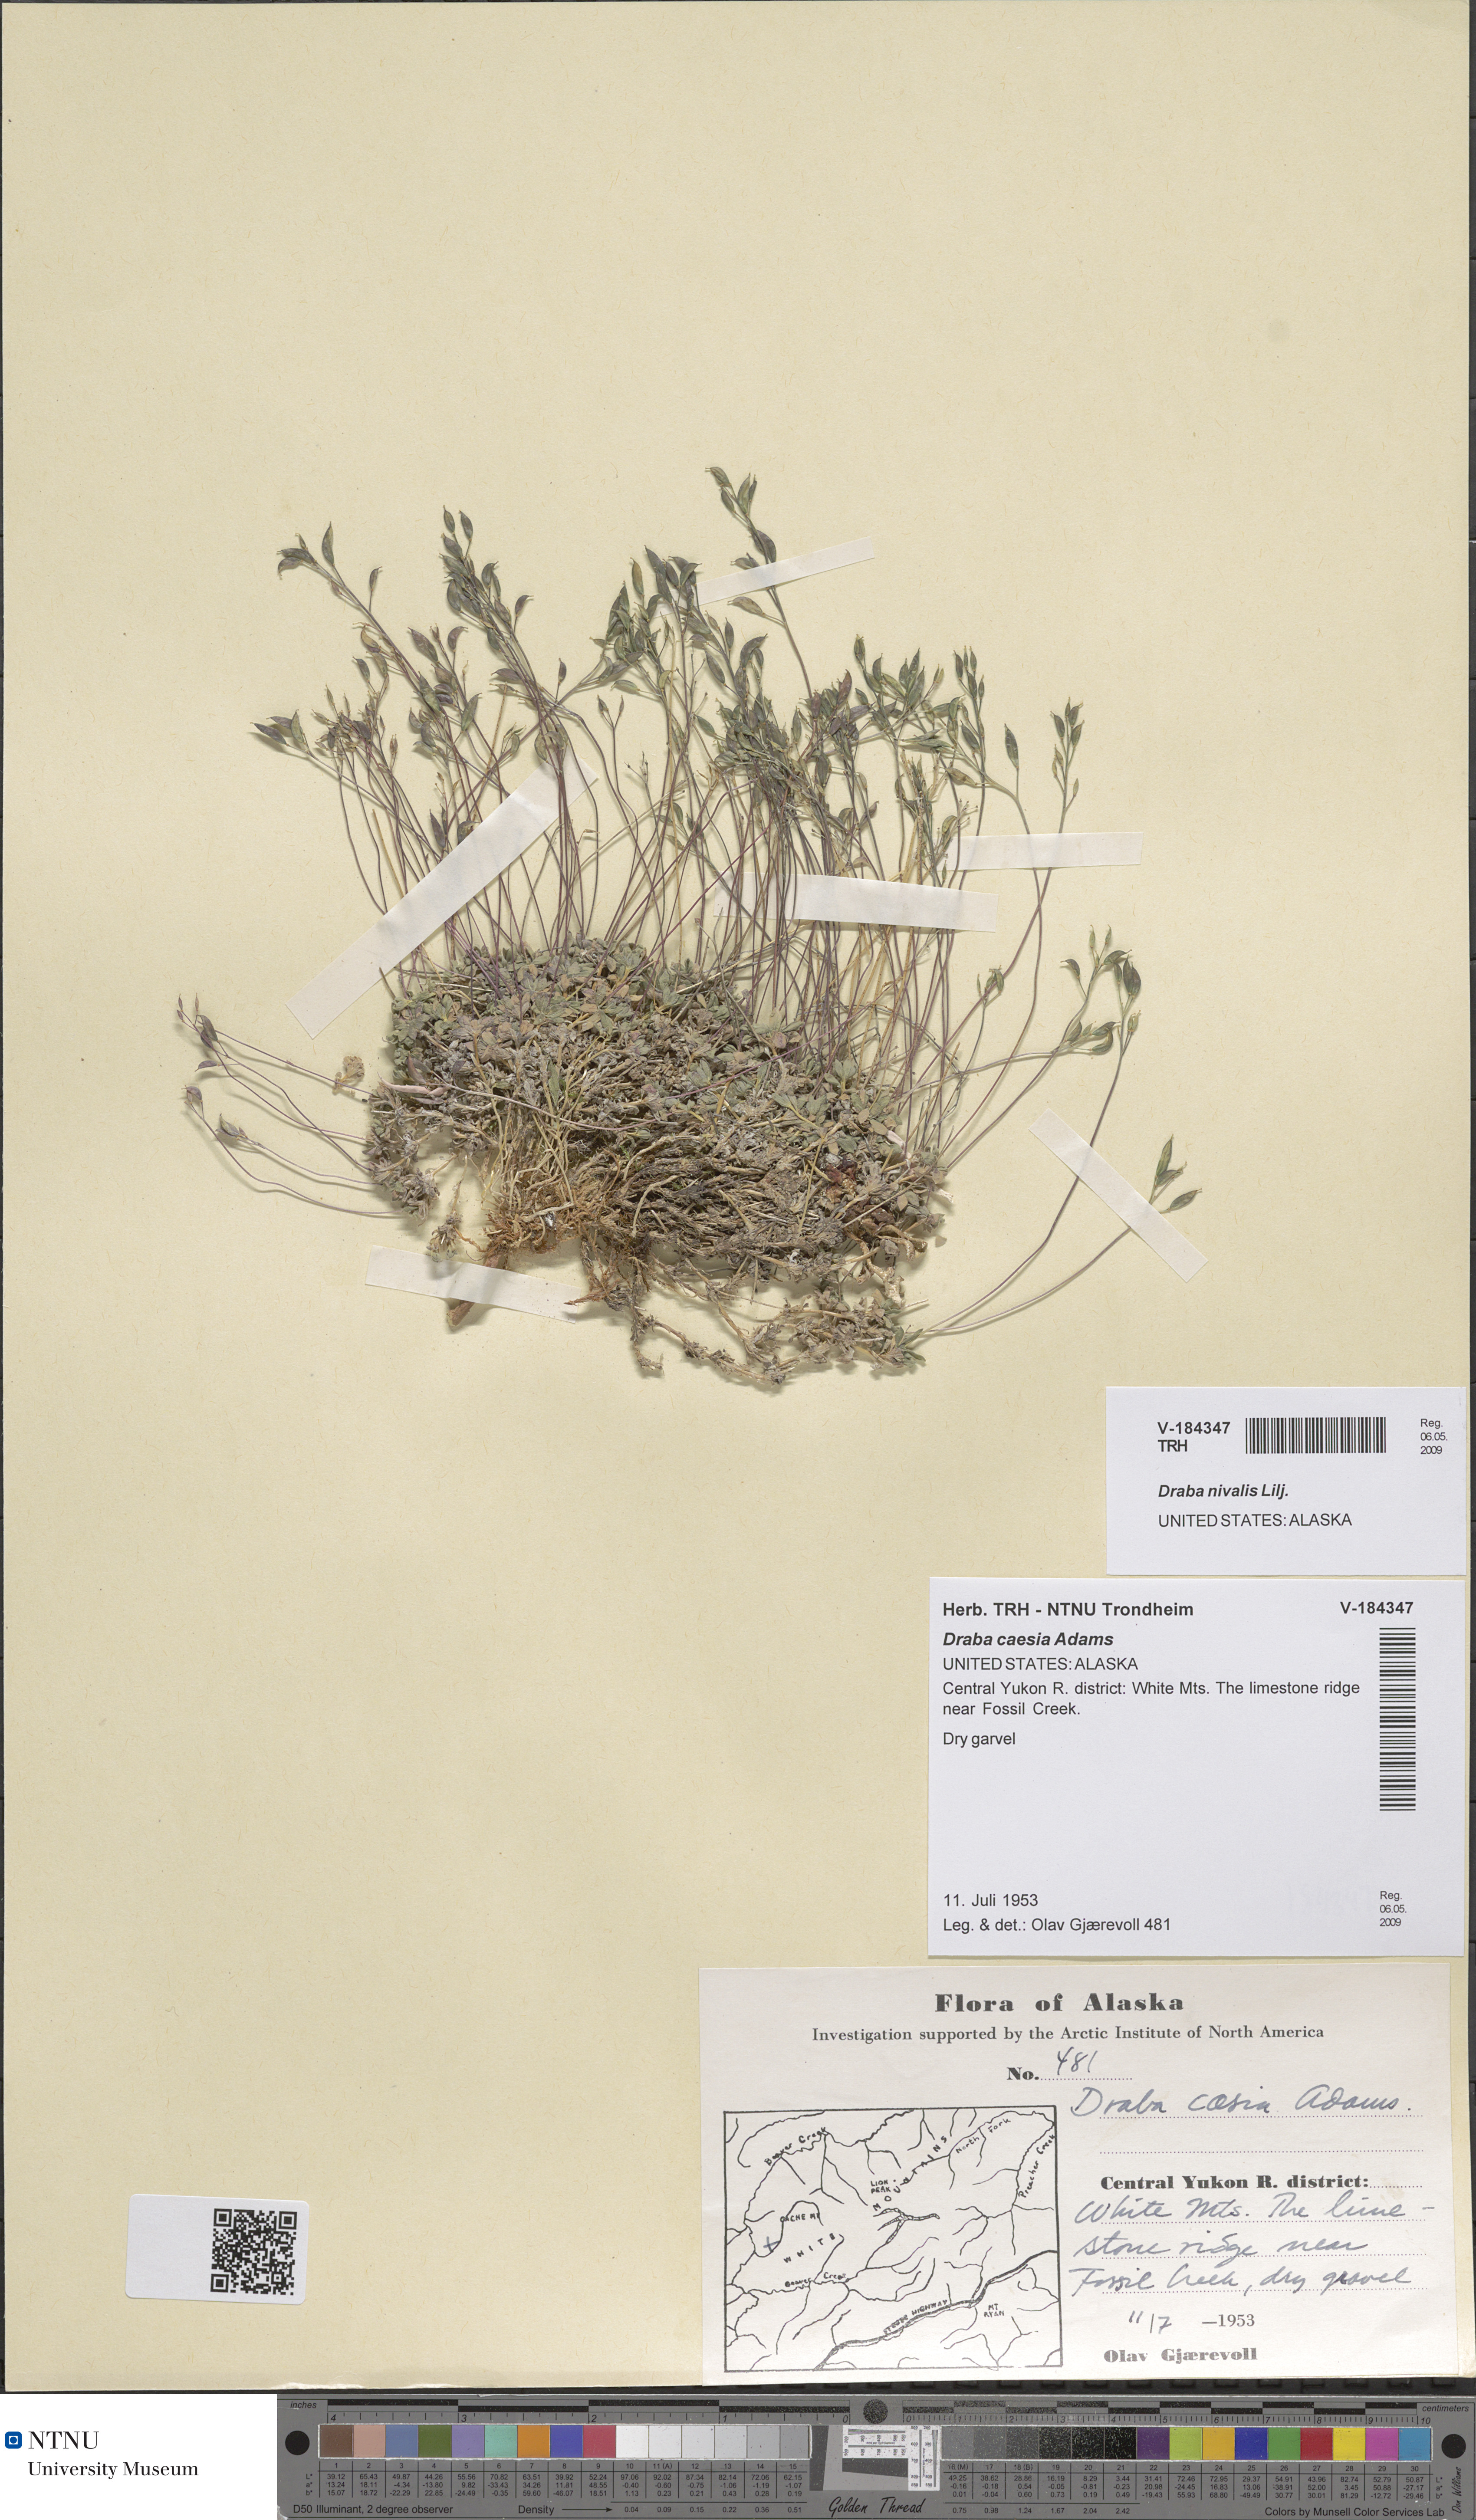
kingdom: Plantae
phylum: Tracheophyta
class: Magnoliopsida
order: Brassicales
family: Brassicaceae
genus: Draba
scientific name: Draba nivalis
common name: Snow draba
